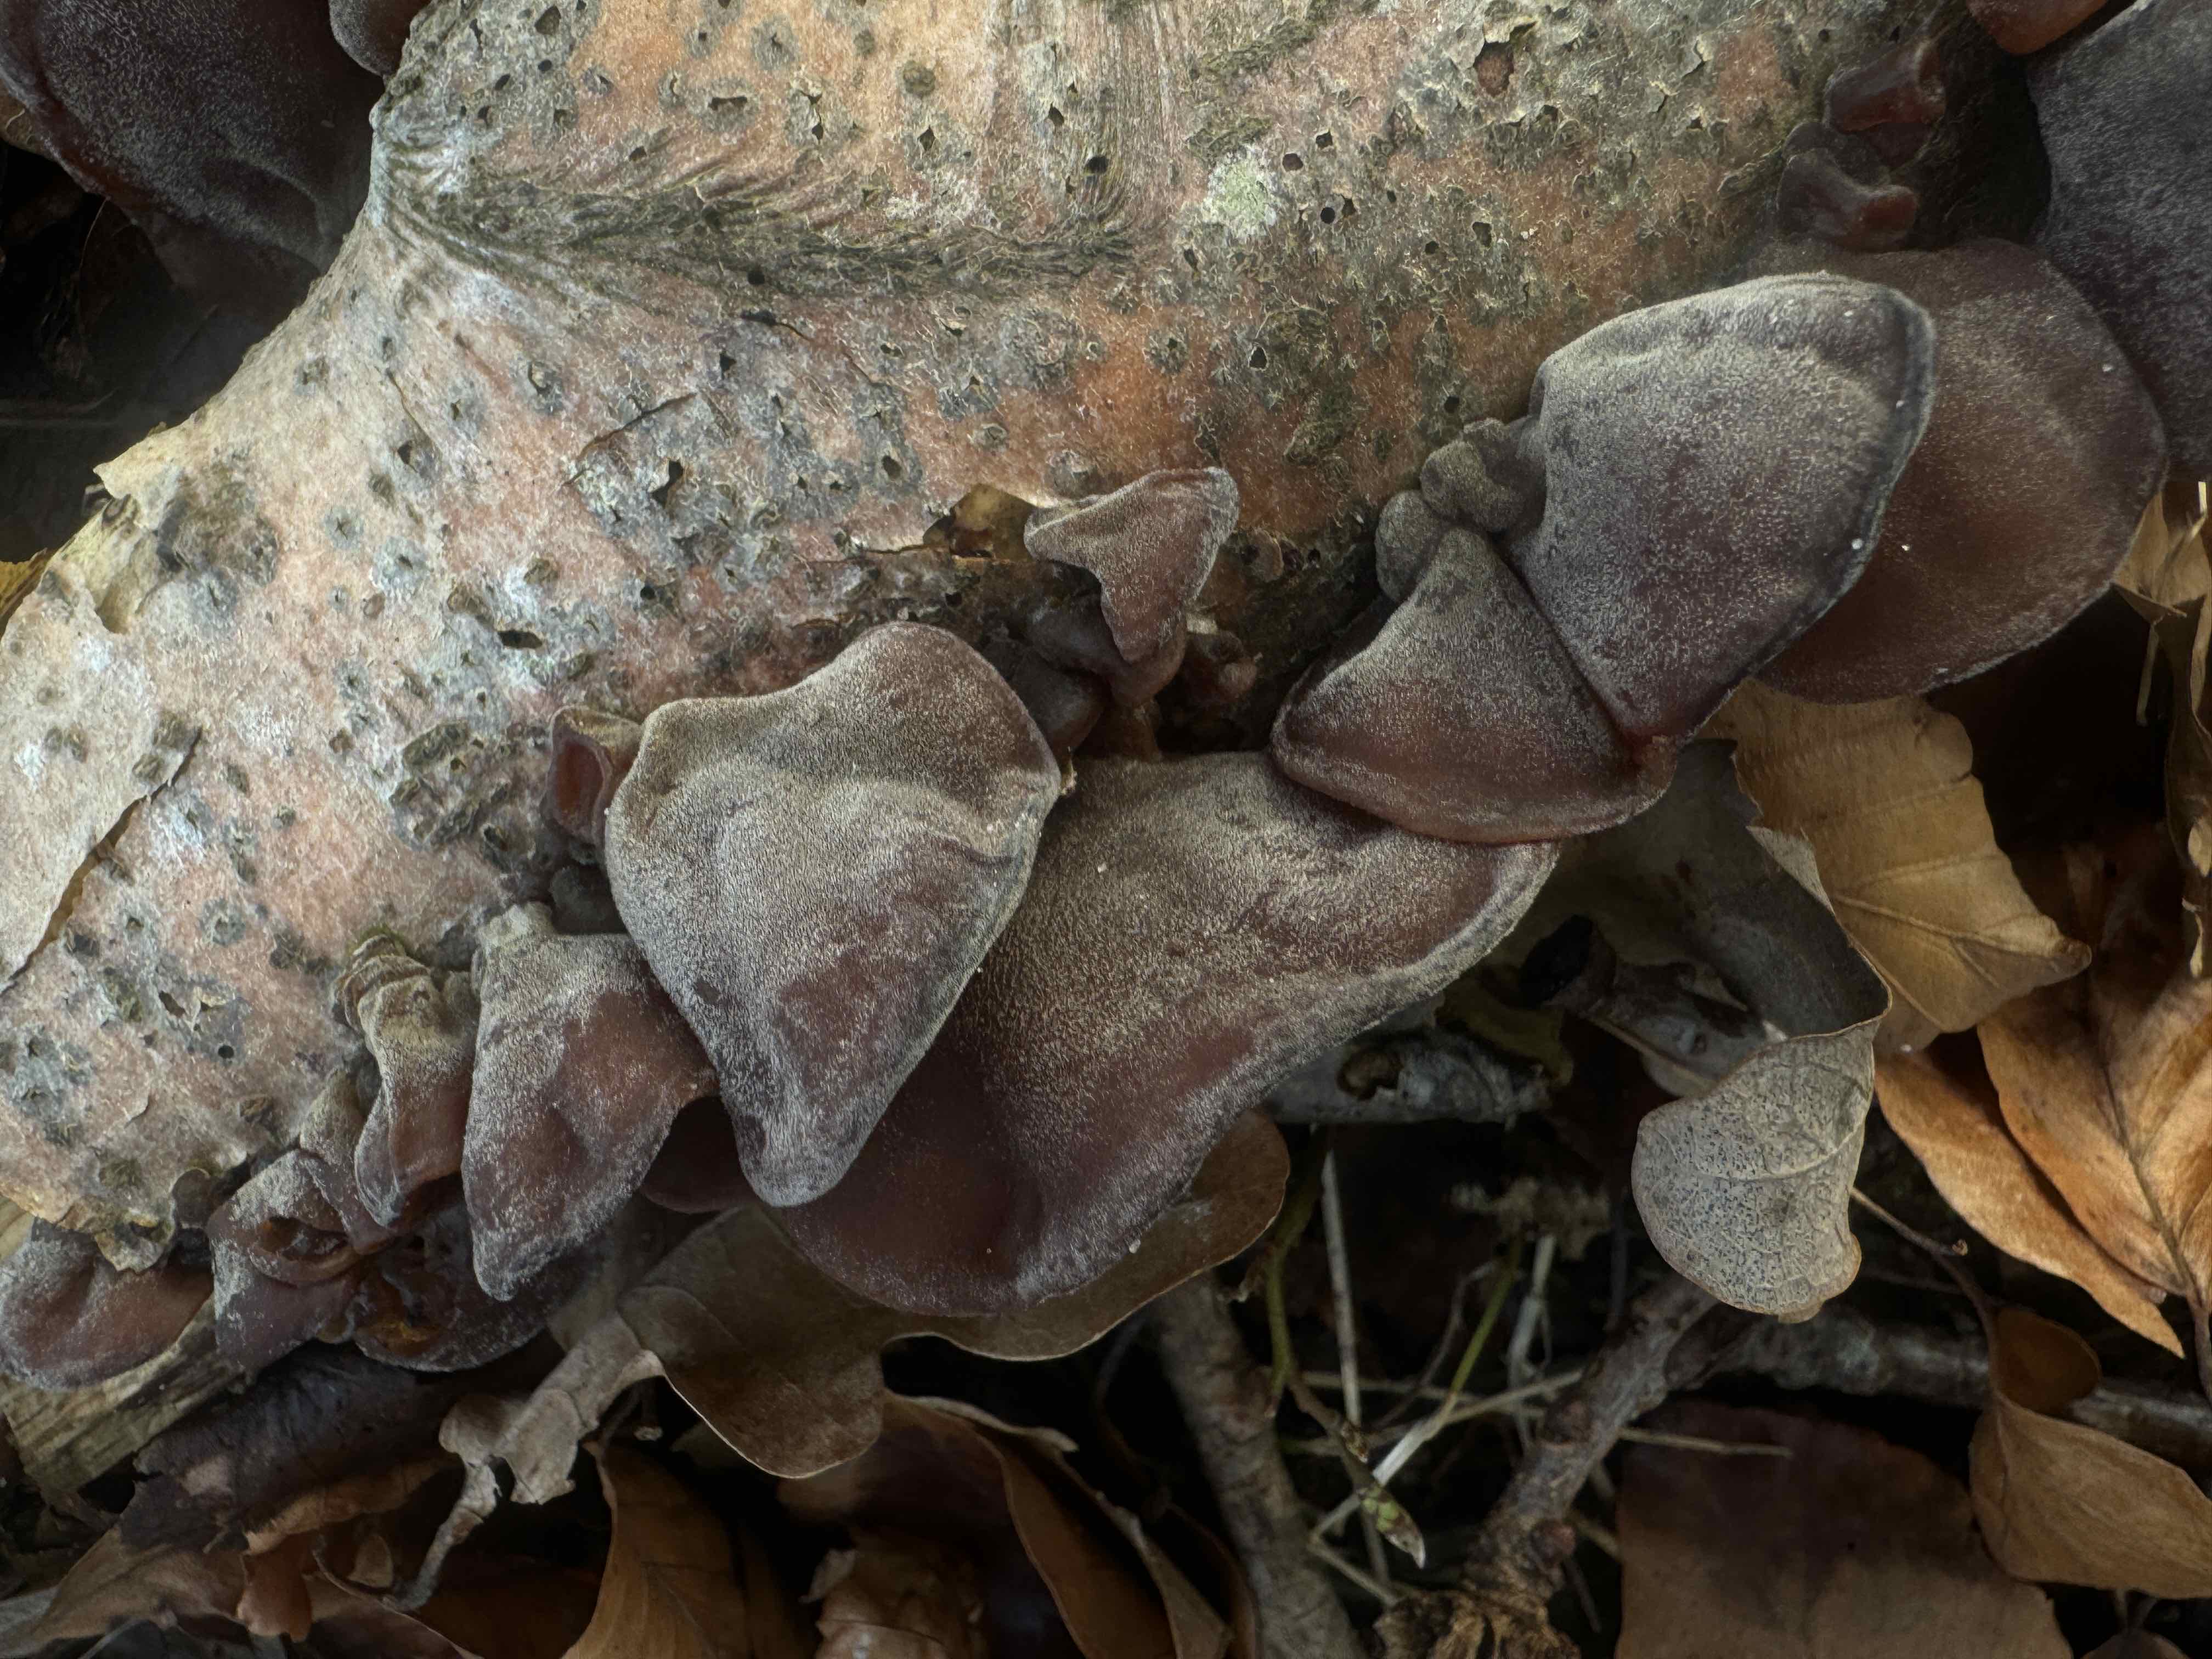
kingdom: Fungi
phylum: Basidiomycota
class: Agaricomycetes
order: Auriculariales
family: Auriculariaceae
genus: Auricularia
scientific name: Auricularia auricula-judae
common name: almindelig judasøre
